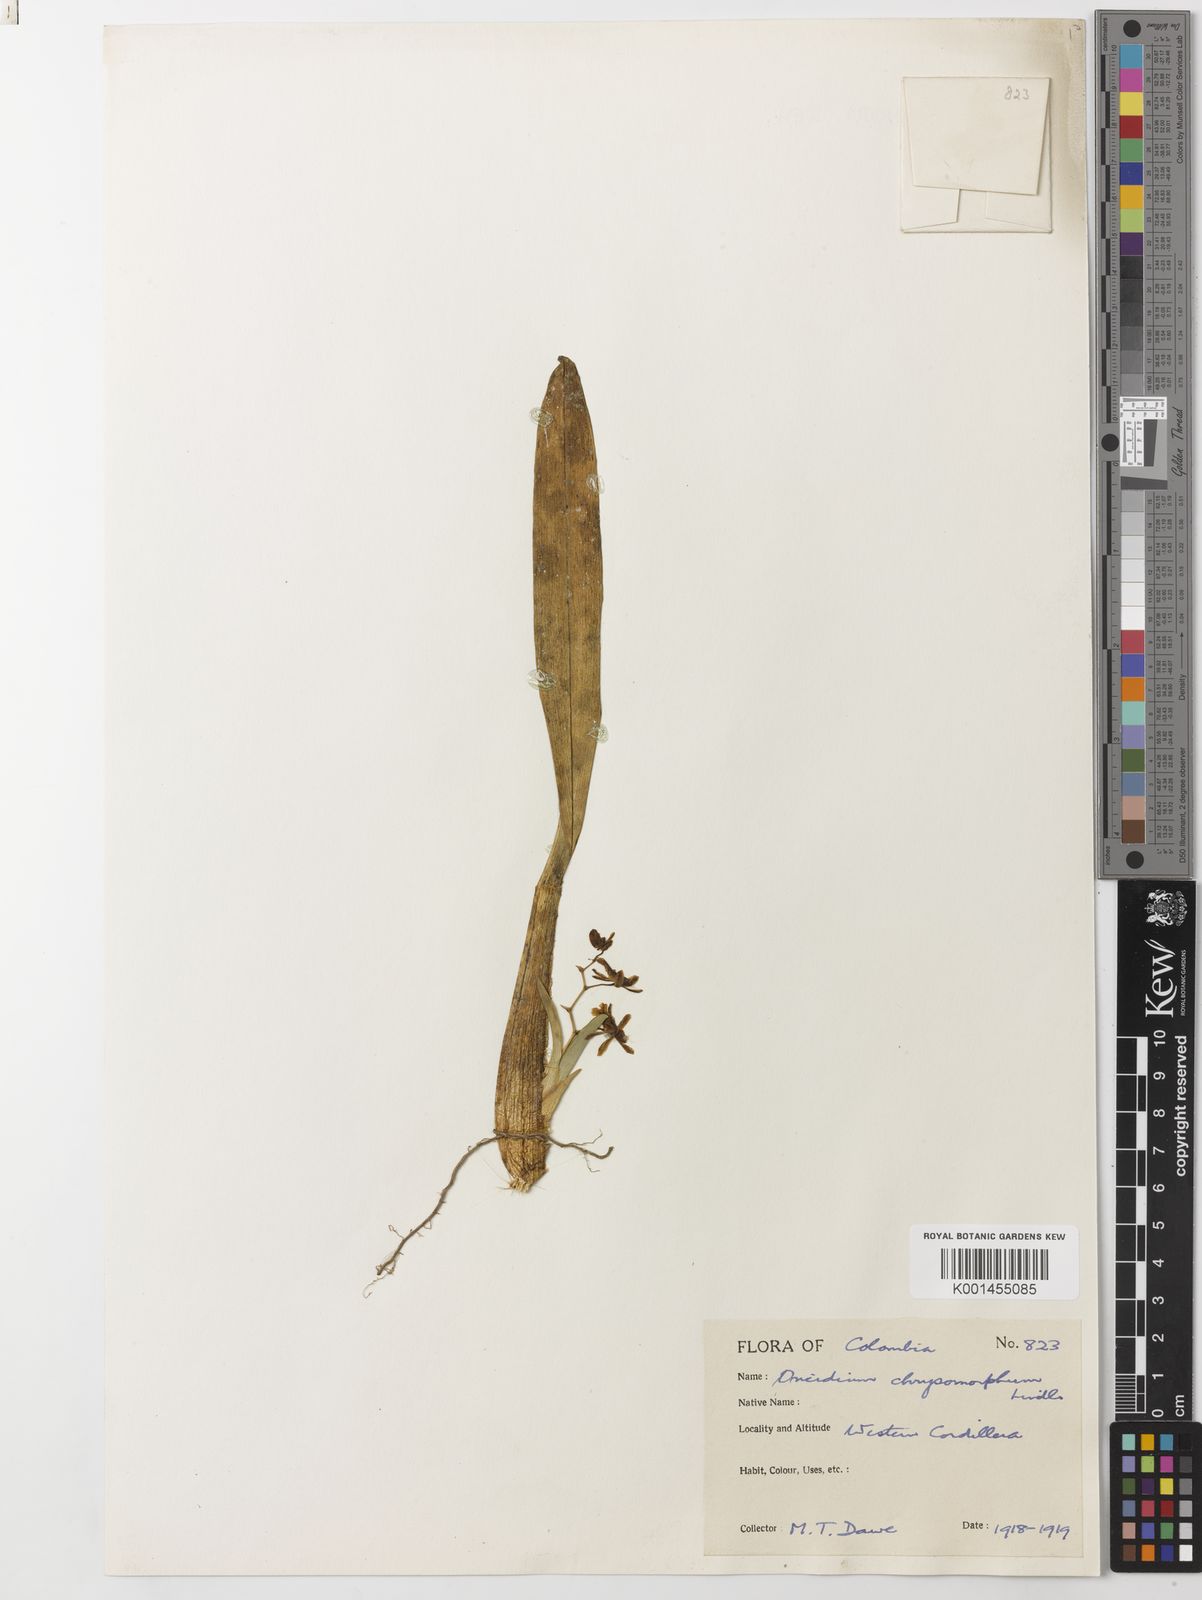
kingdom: Plantae
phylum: Tracheophyta
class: Liliopsida
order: Asparagales
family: Orchidaceae
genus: Oncidium
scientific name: Oncidium chrysomorphum
